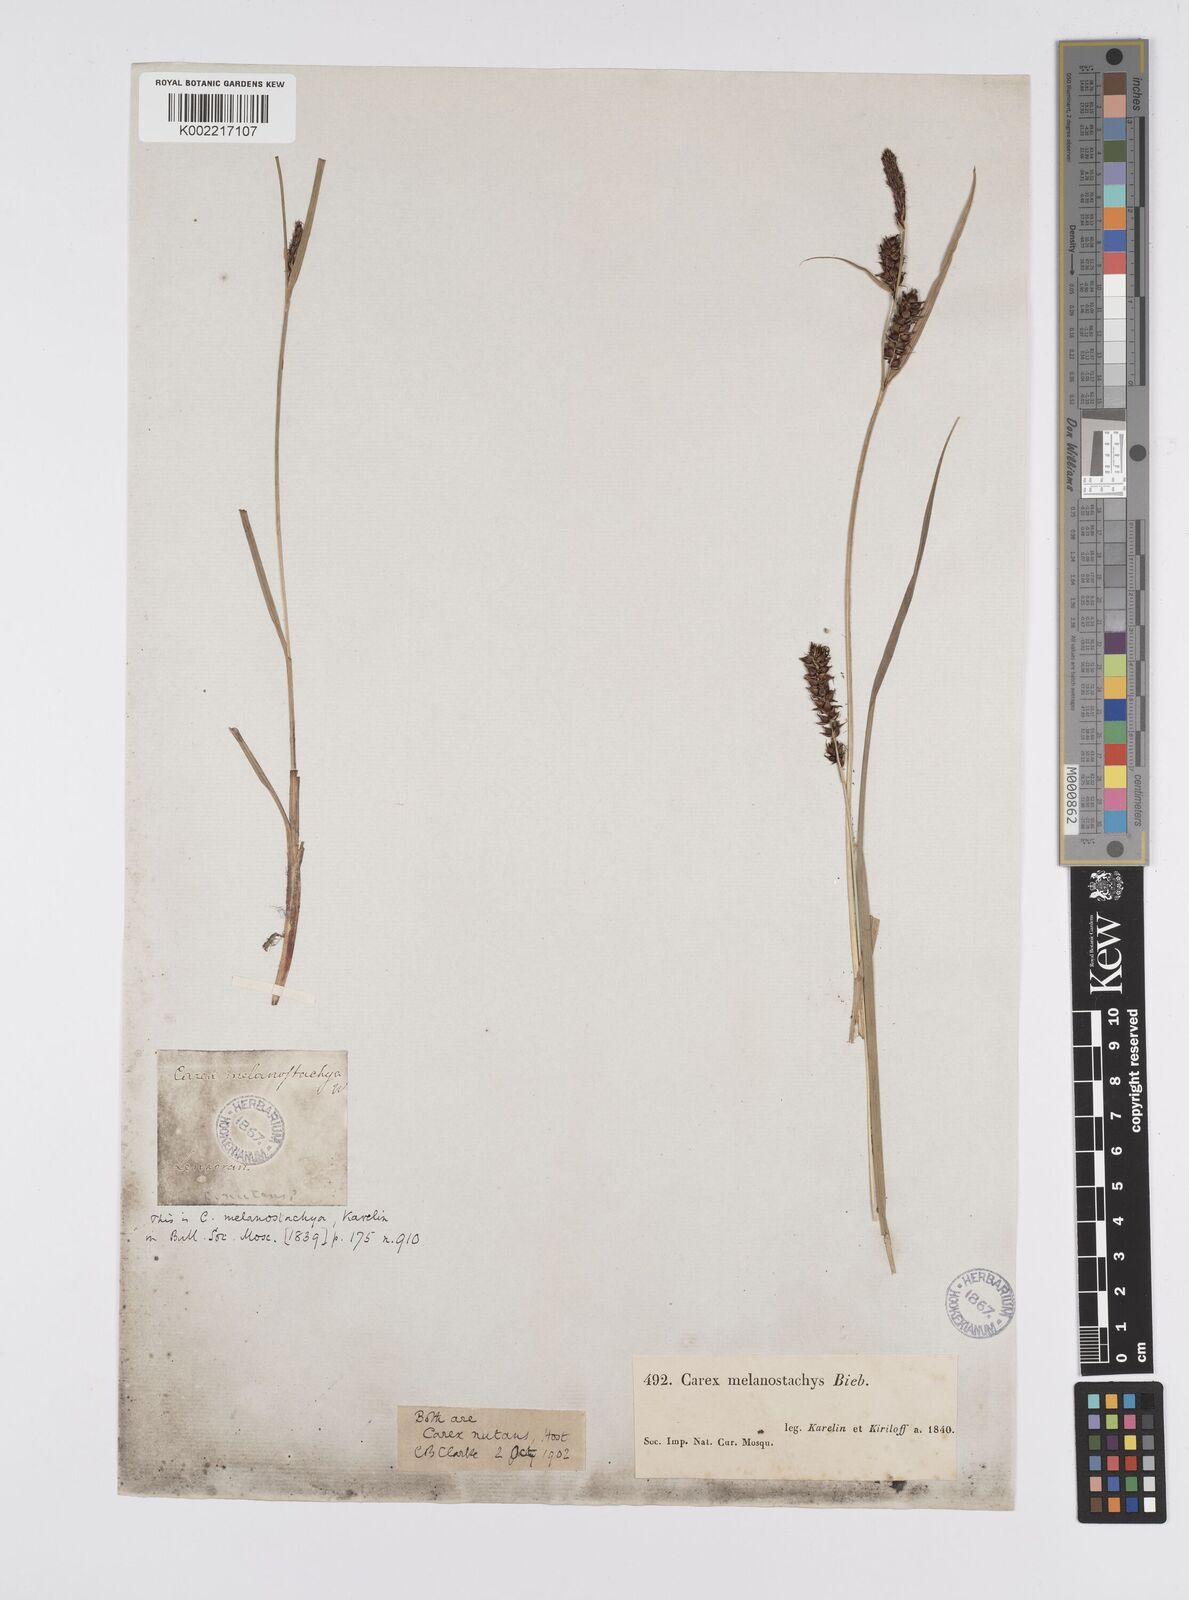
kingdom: Plantae
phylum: Tracheophyta
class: Liliopsida
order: Poales
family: Cyperaceae
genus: Carex
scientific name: Carex melanostachya
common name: Black-spiked sedge
